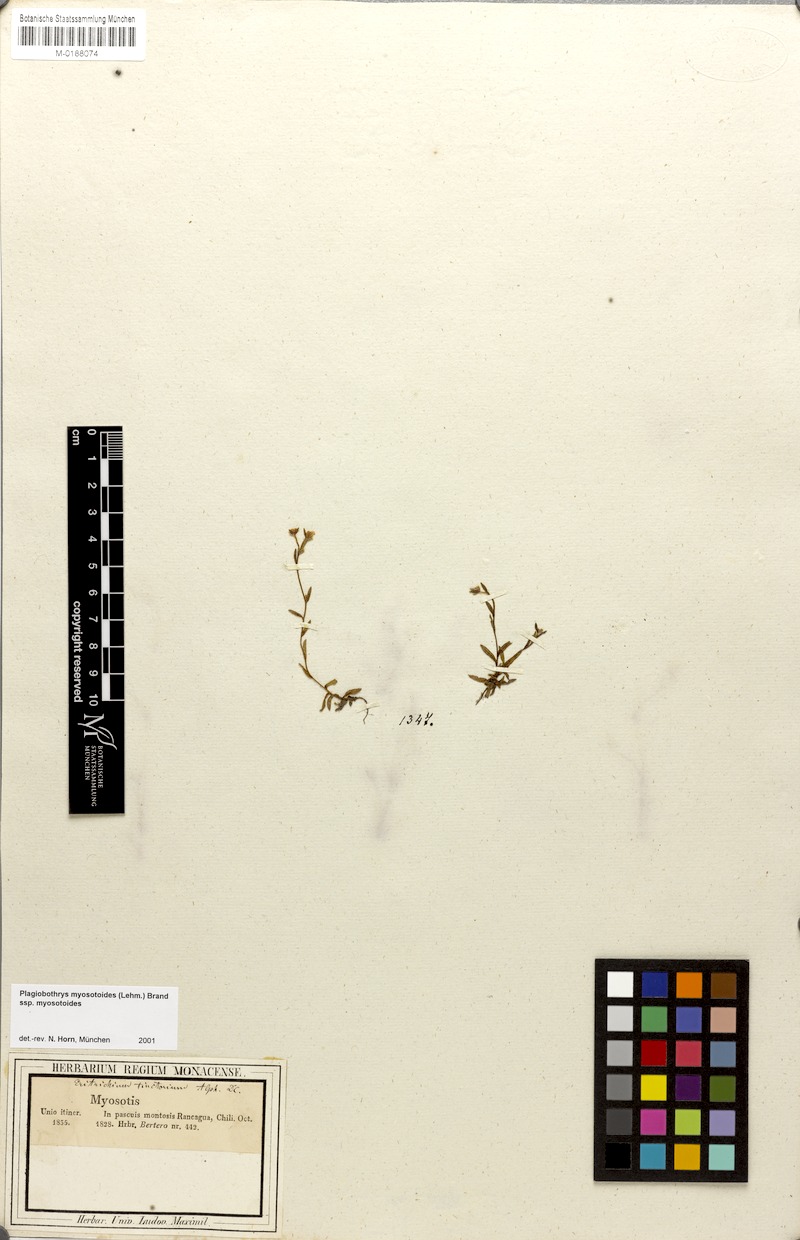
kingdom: Plantae
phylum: Tracheophyta
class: Magnoliopsida
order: Boraginales
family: Boraginaceae
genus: Plagiobothrys
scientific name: Plagiobothrys myosotoides
